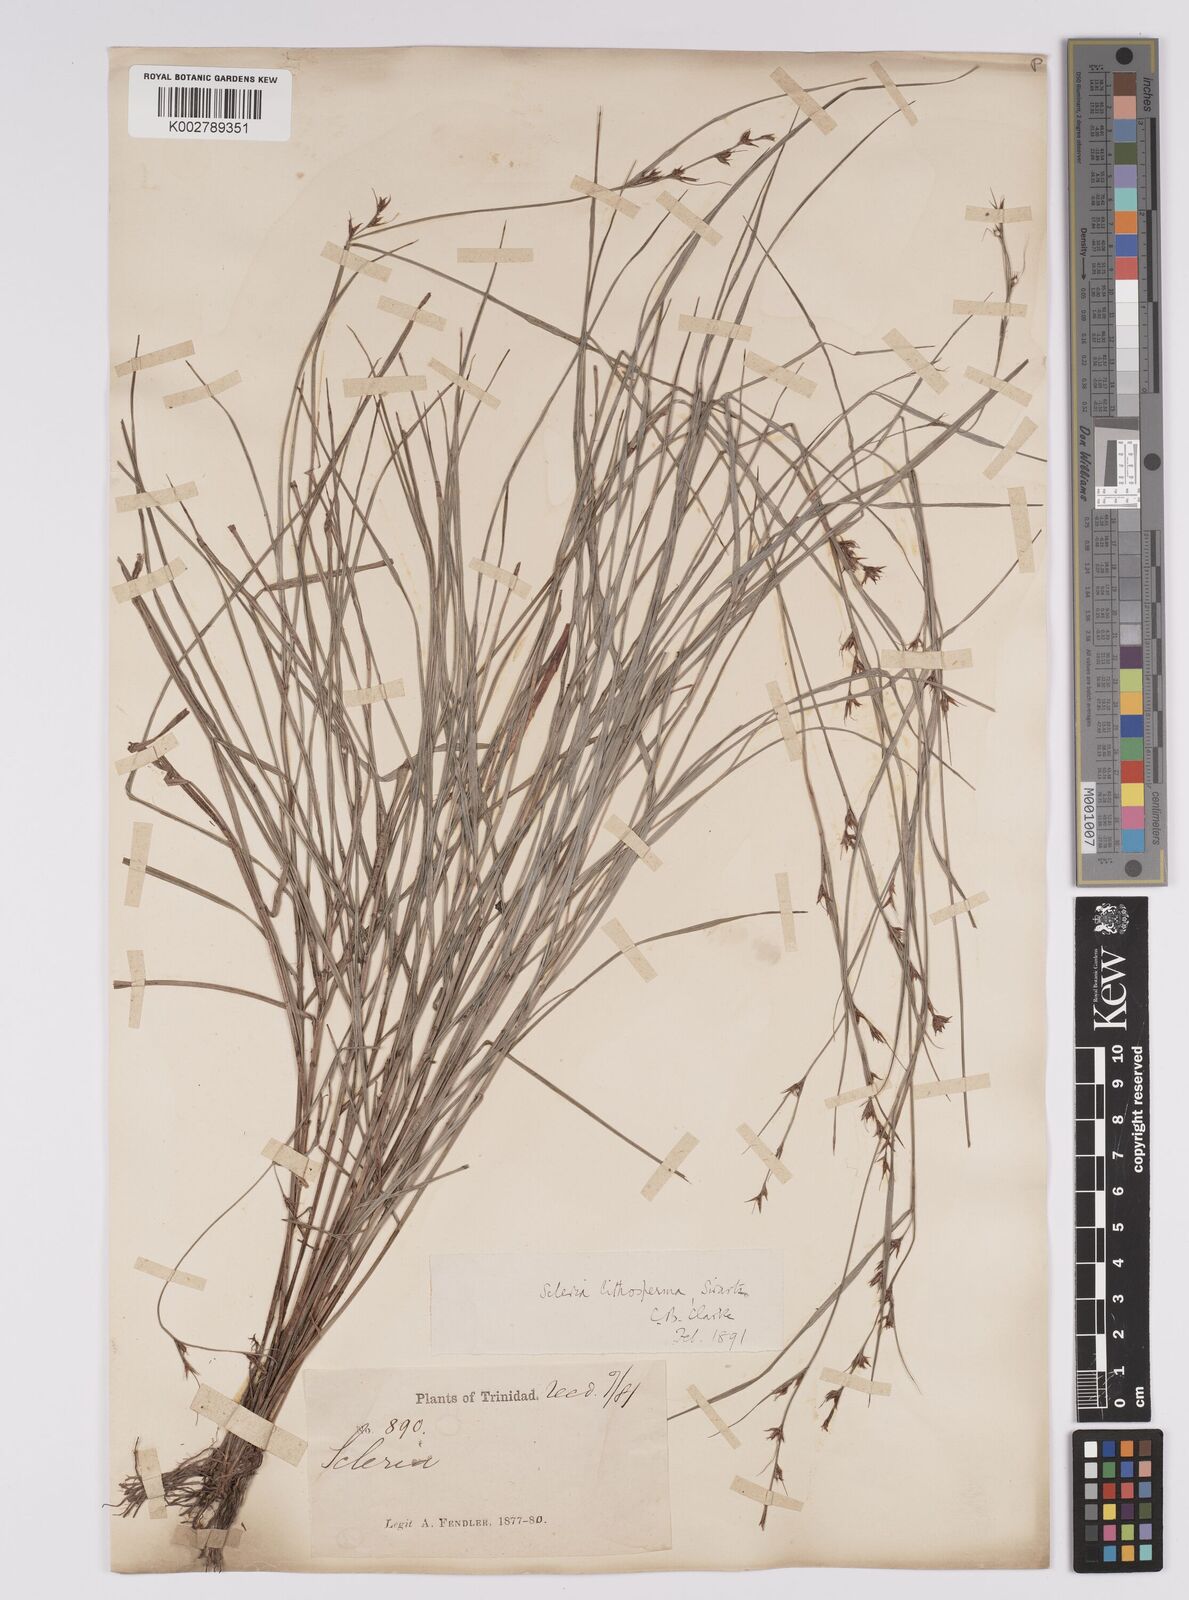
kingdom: Plantae
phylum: Tracheophyta
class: Liliopsida
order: Poales
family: Cyperaceae
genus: Scleria
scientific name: Scleria lithosperma
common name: Florida keys nut-rush
